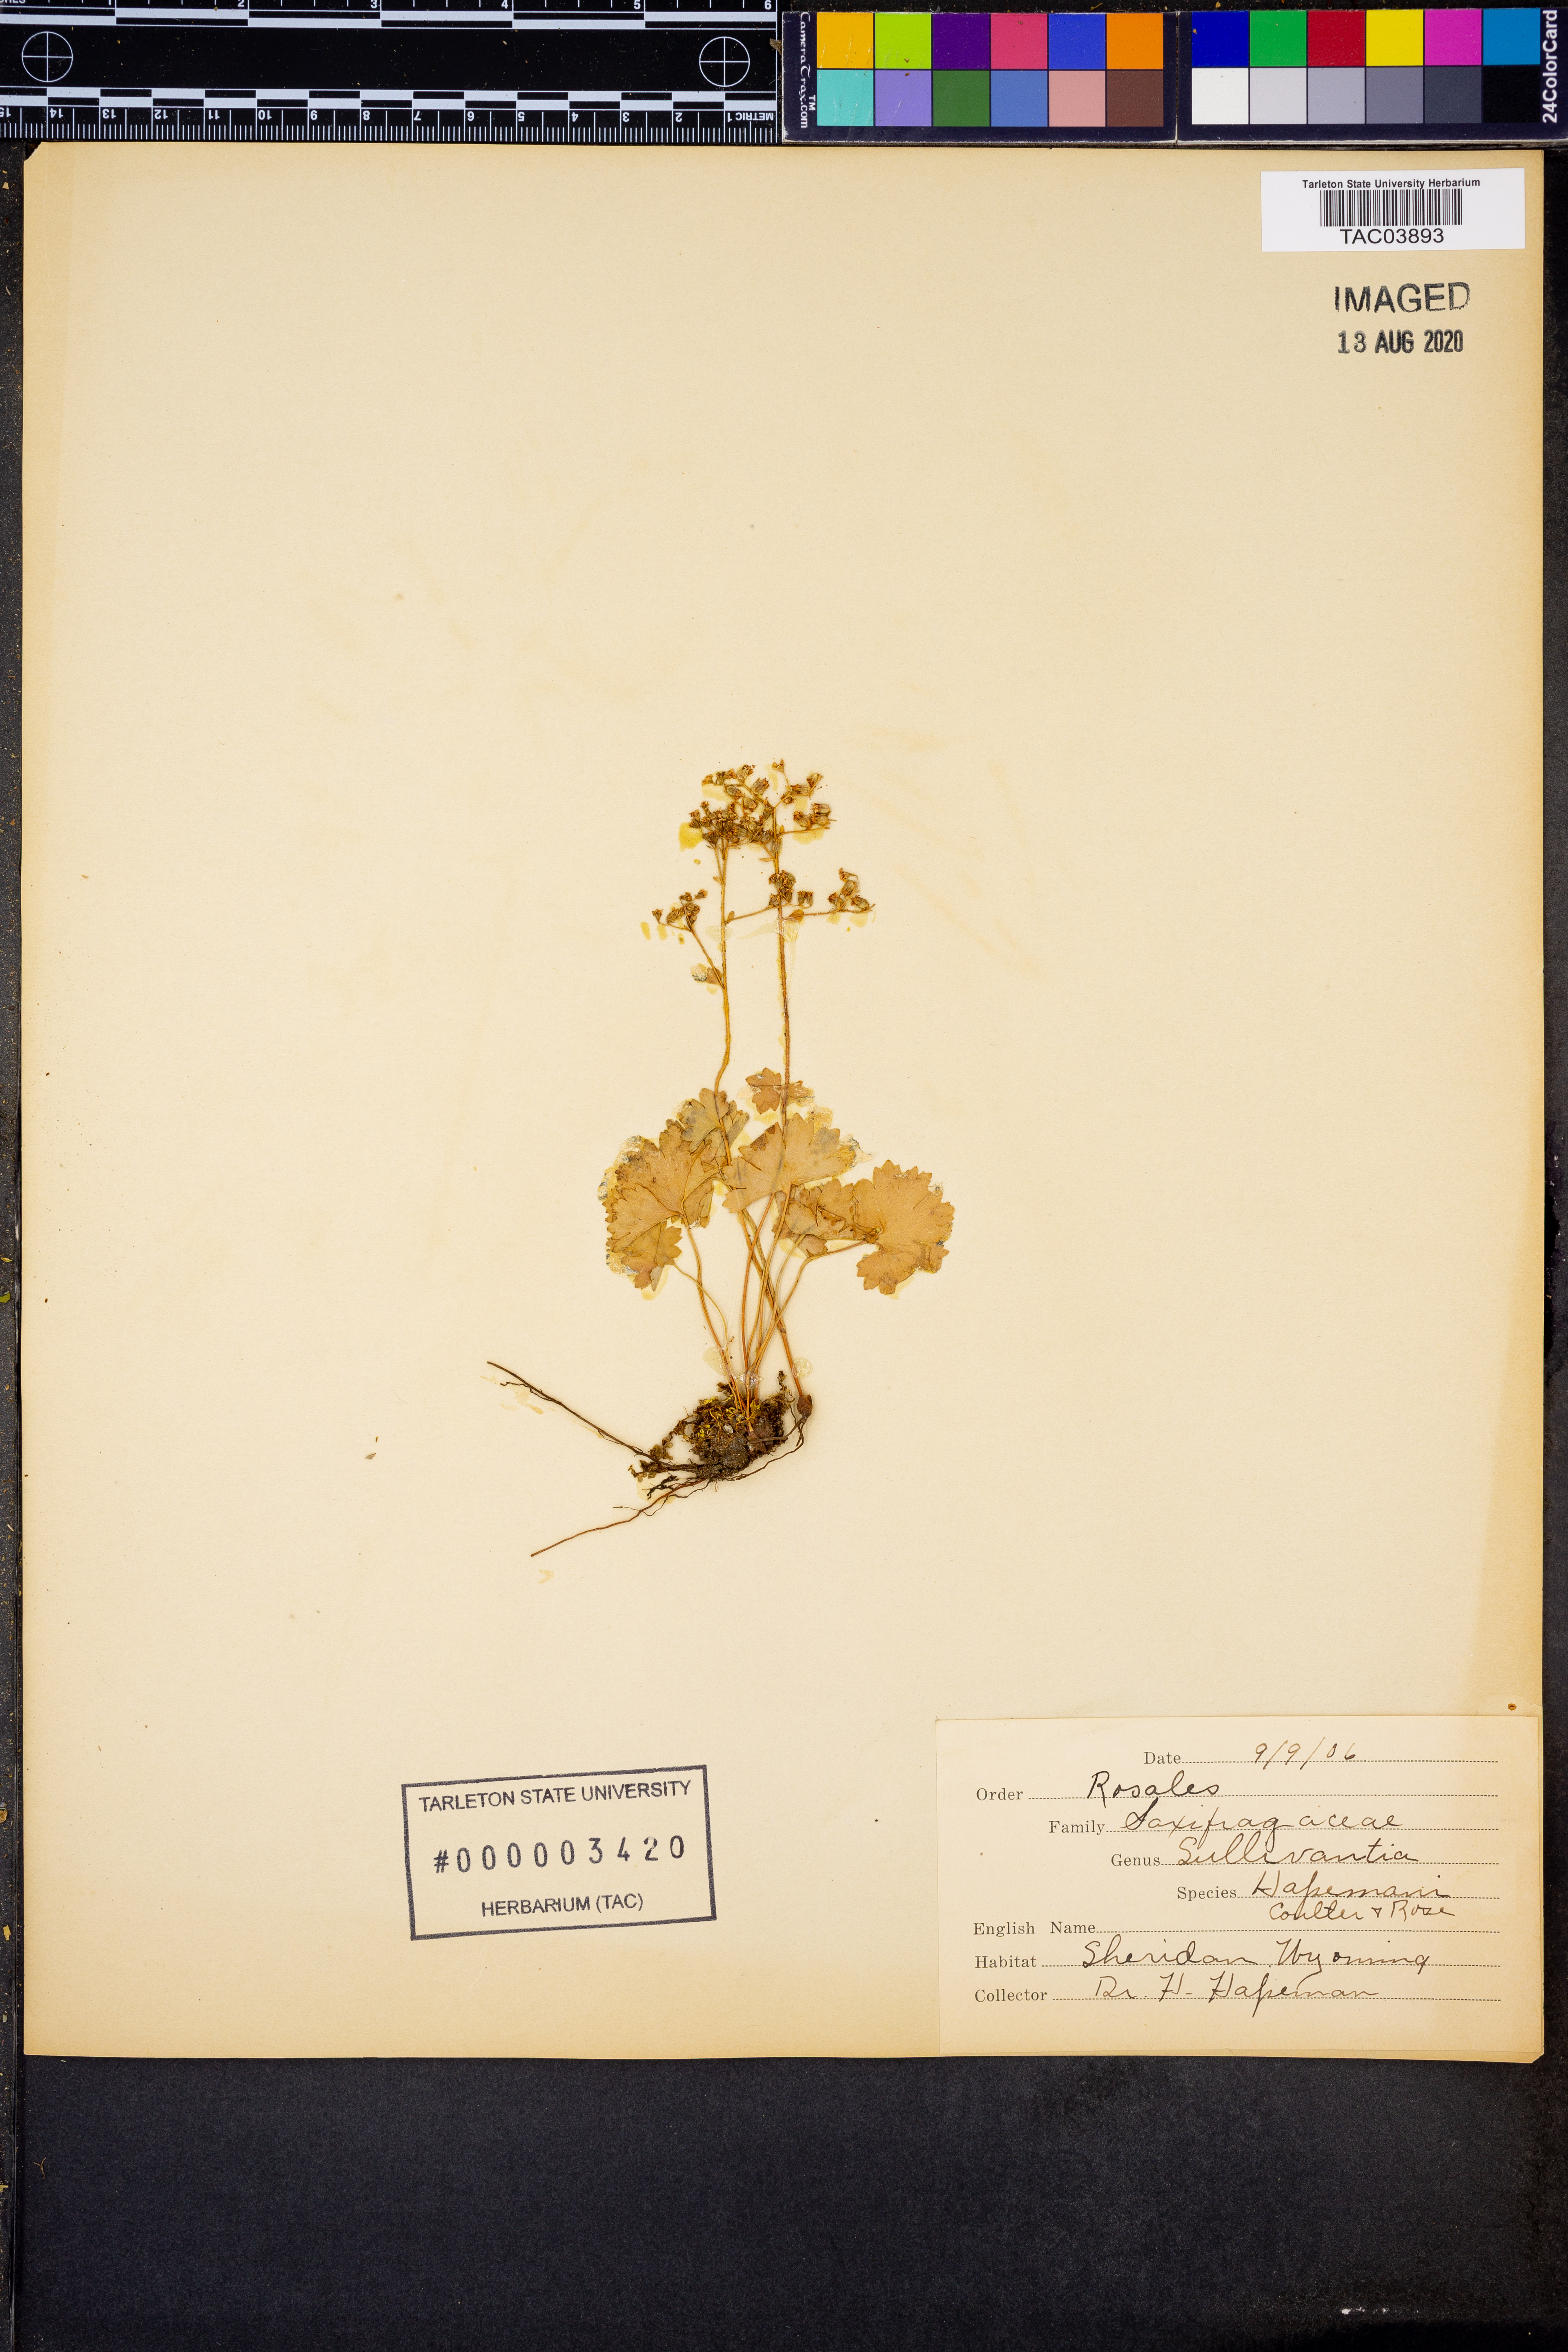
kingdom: Plantae
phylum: Tracheophyta
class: Magnoliopsida
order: Saxifragales
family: Saxifragaceae
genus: Sullivantia
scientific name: Sullivantia hapemanii
